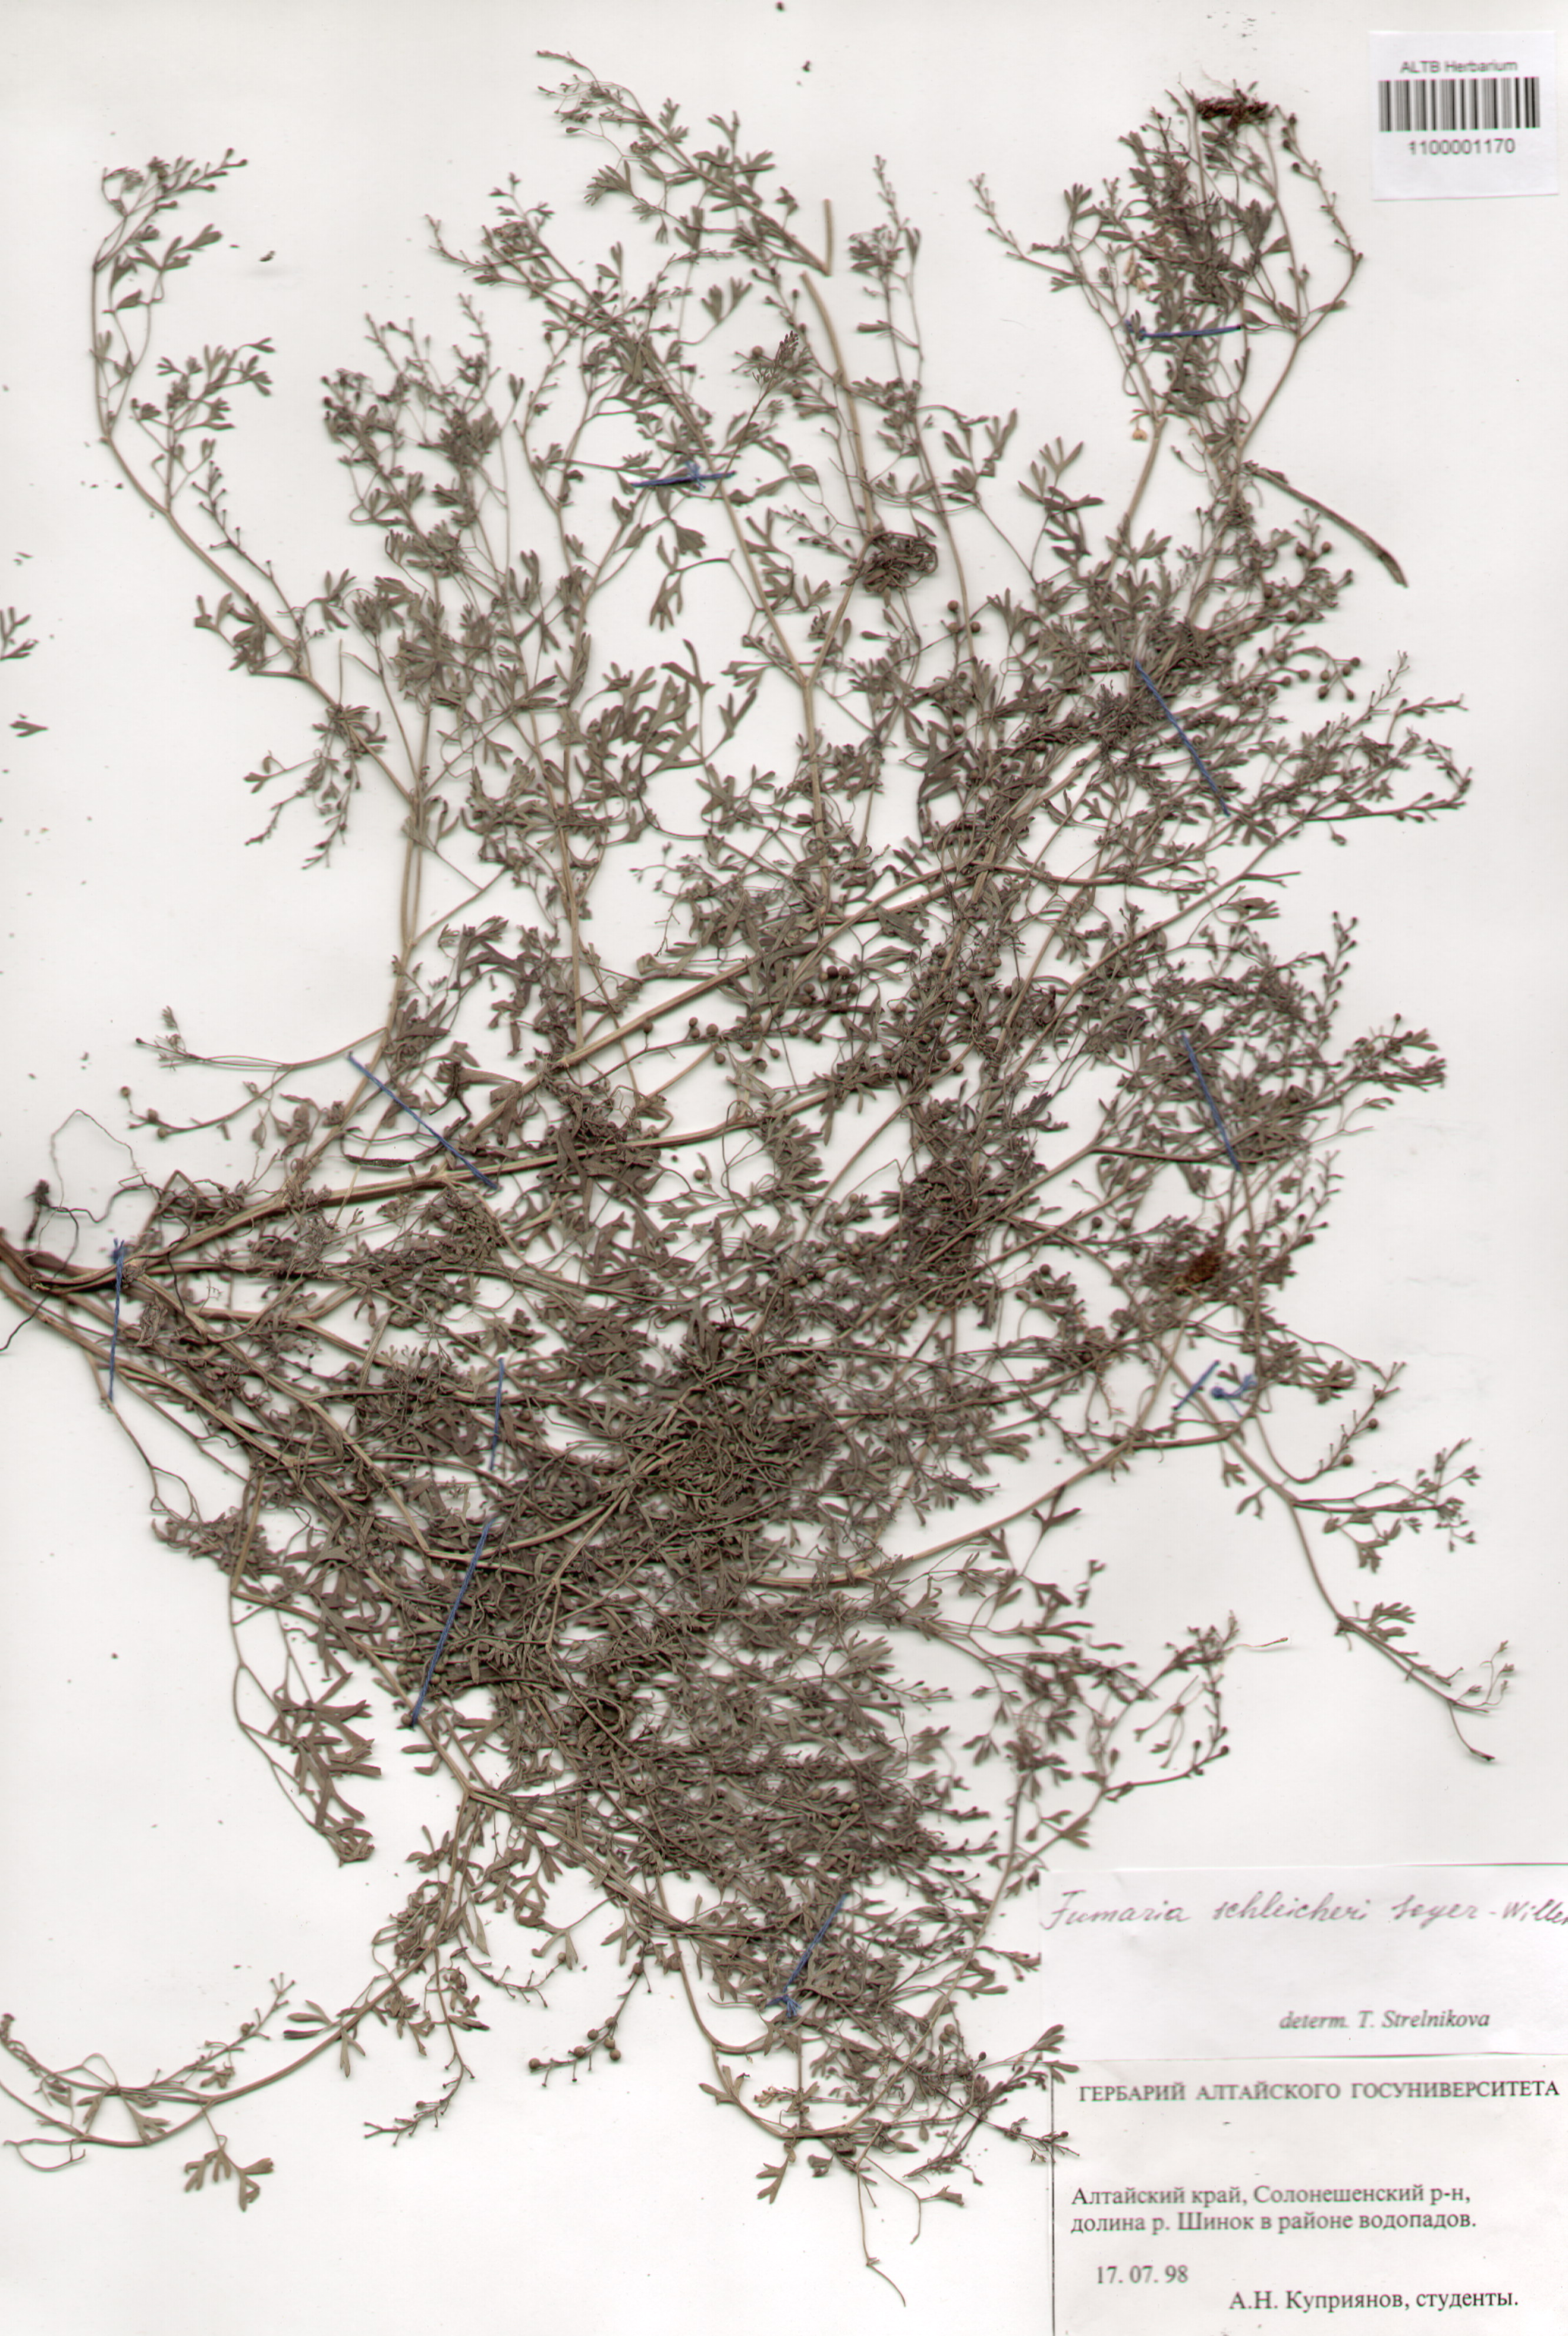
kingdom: Plantae
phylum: Tracheophyta
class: Magnoliopsida
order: Ranunculales
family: Papaveraceae
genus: Fumaria
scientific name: Fumaria schleicheri
